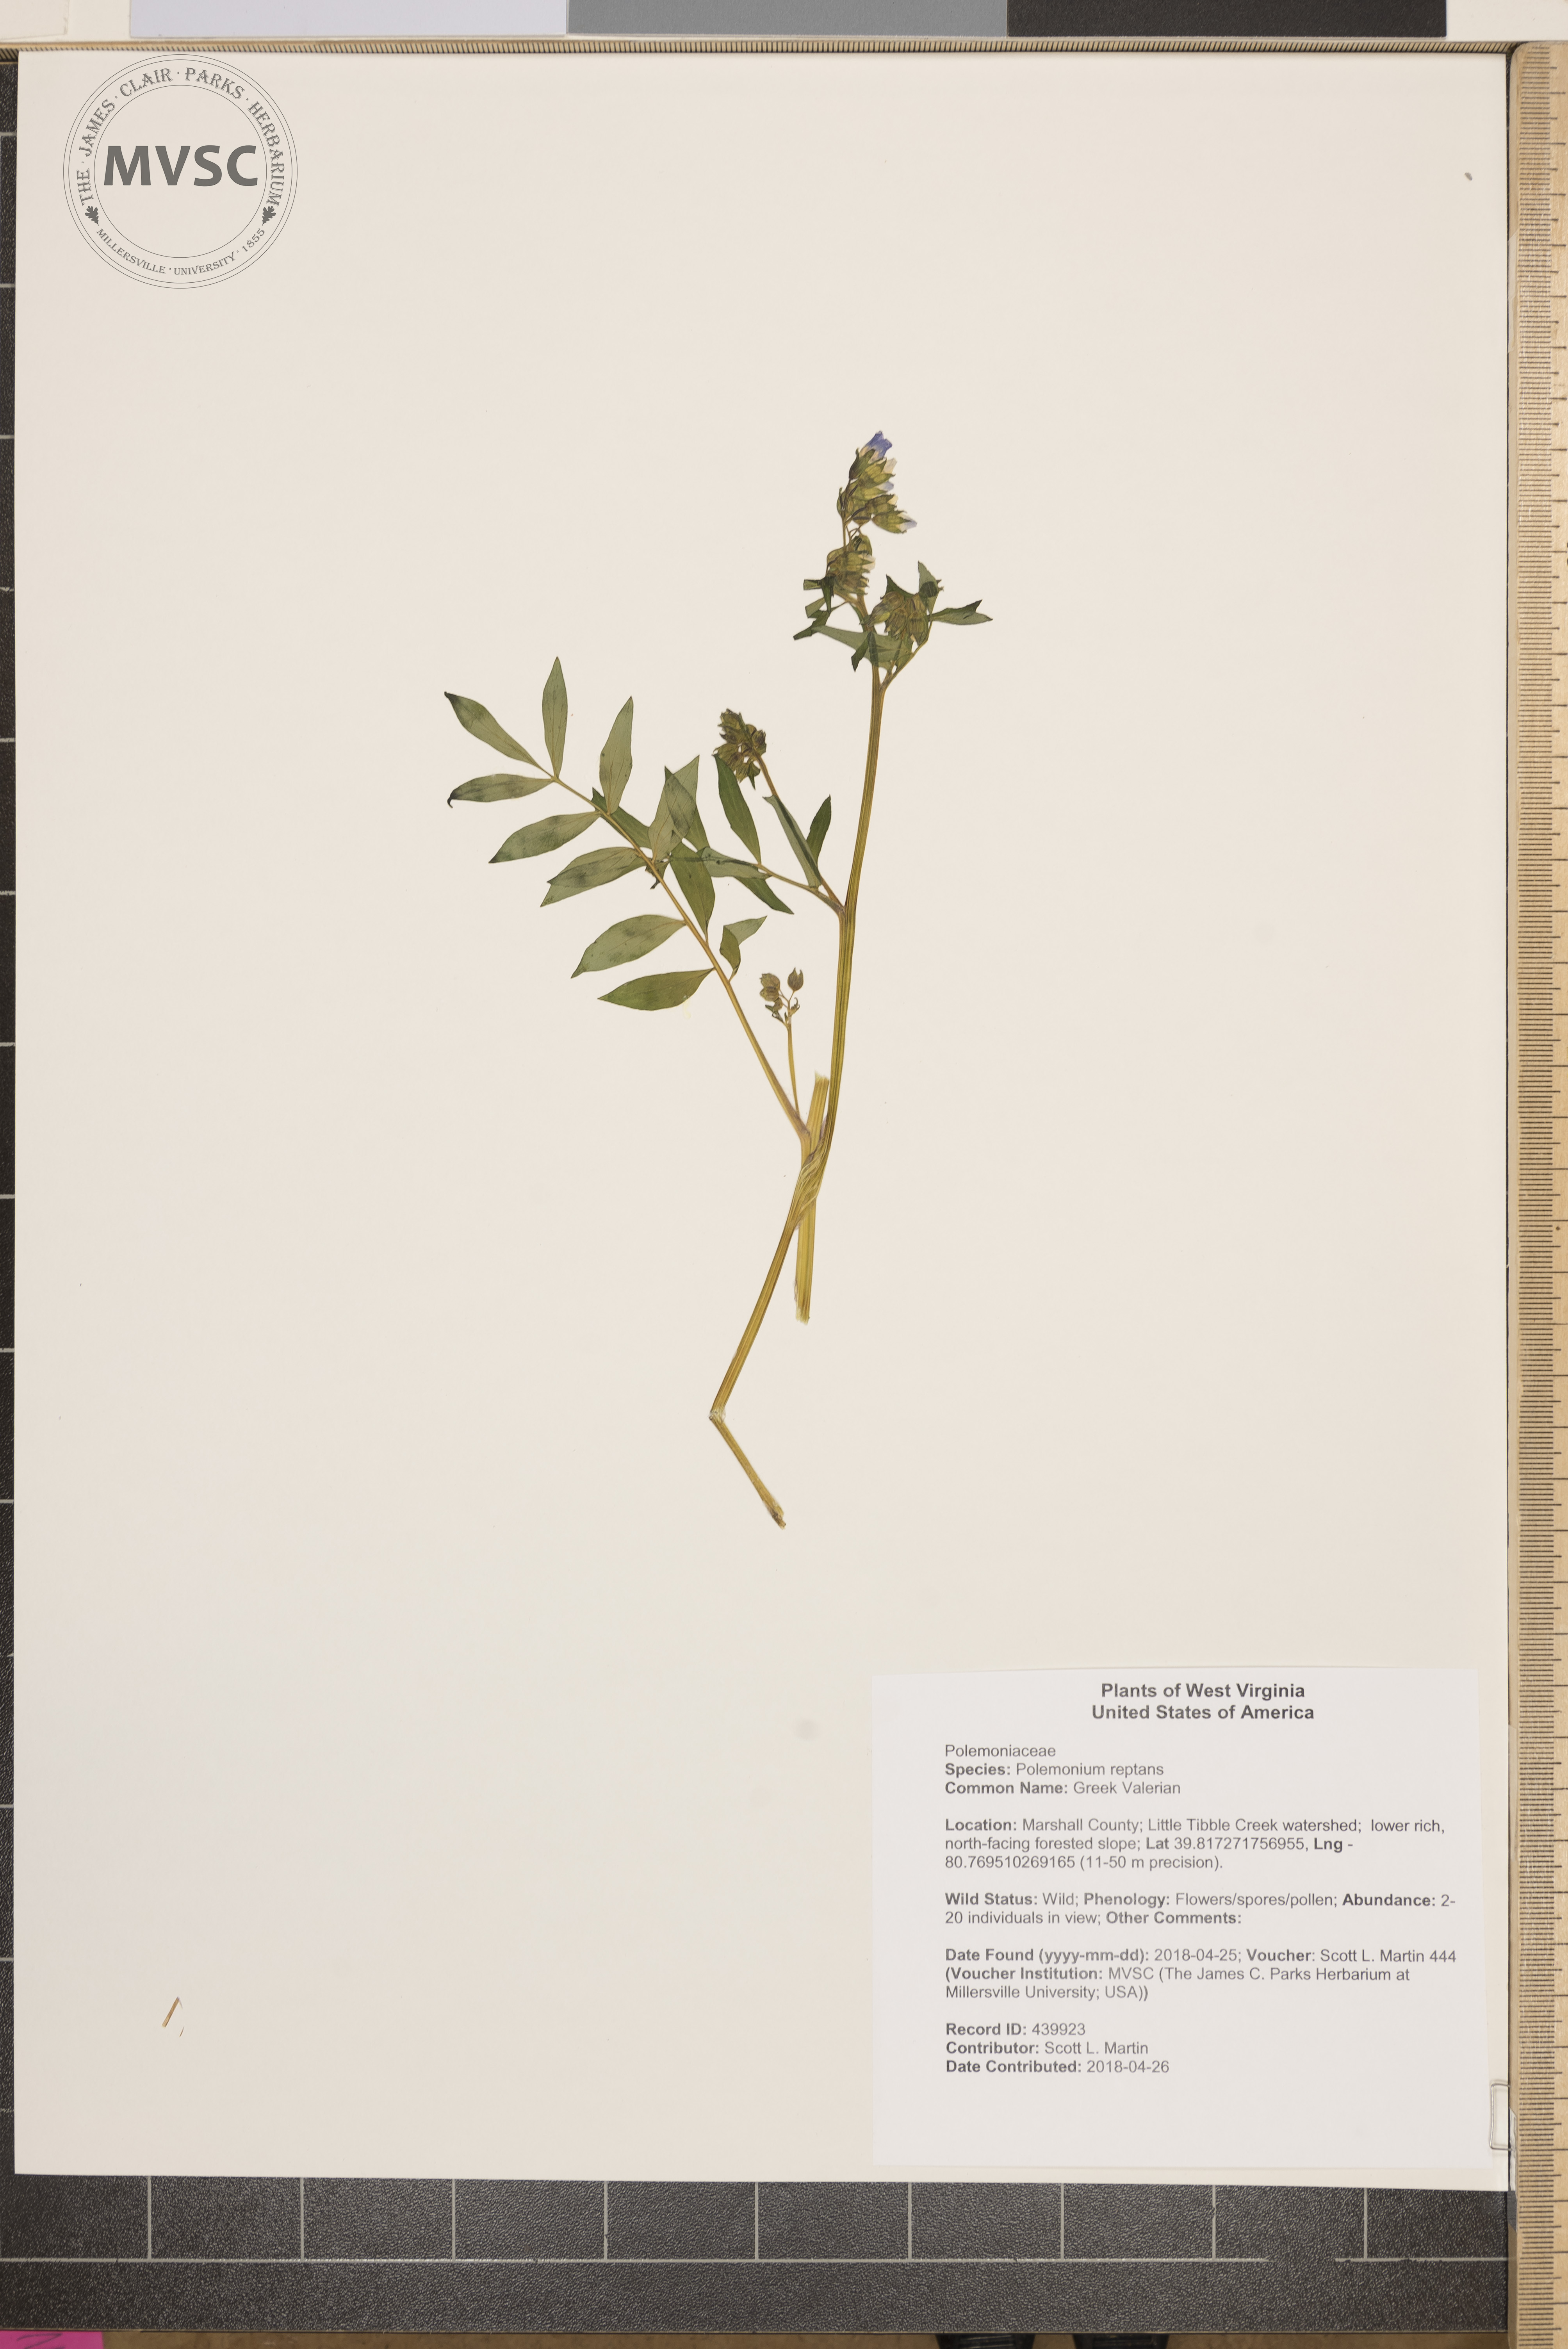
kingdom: Plantae
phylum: Tracheophyta
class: Magnoliopsida
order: Ericales
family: Polemoniaceae
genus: Polemonium
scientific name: Polemonium reptans
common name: Greek Valerian
